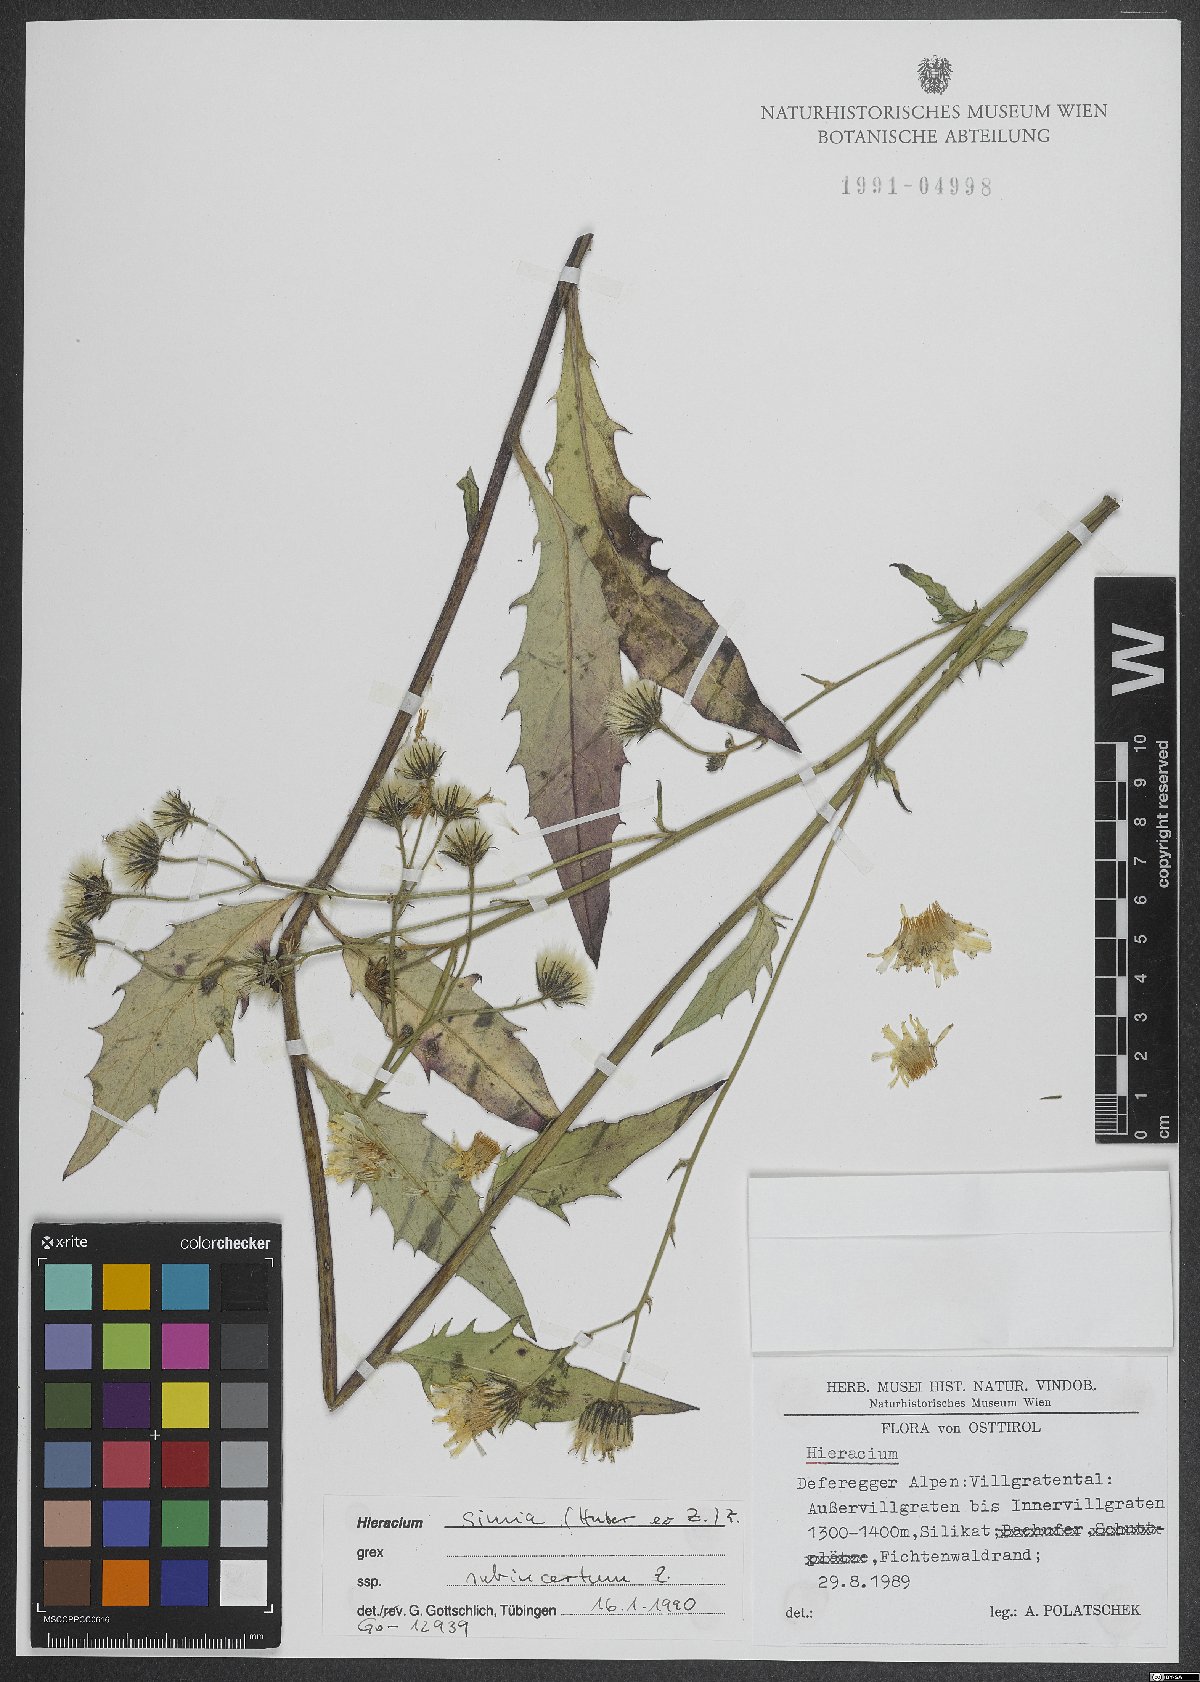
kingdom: Plantae
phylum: Tracheophyta
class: Magnoliopsida
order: Asterales
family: Asteraceae
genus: Hieracium
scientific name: Hieracium simia
